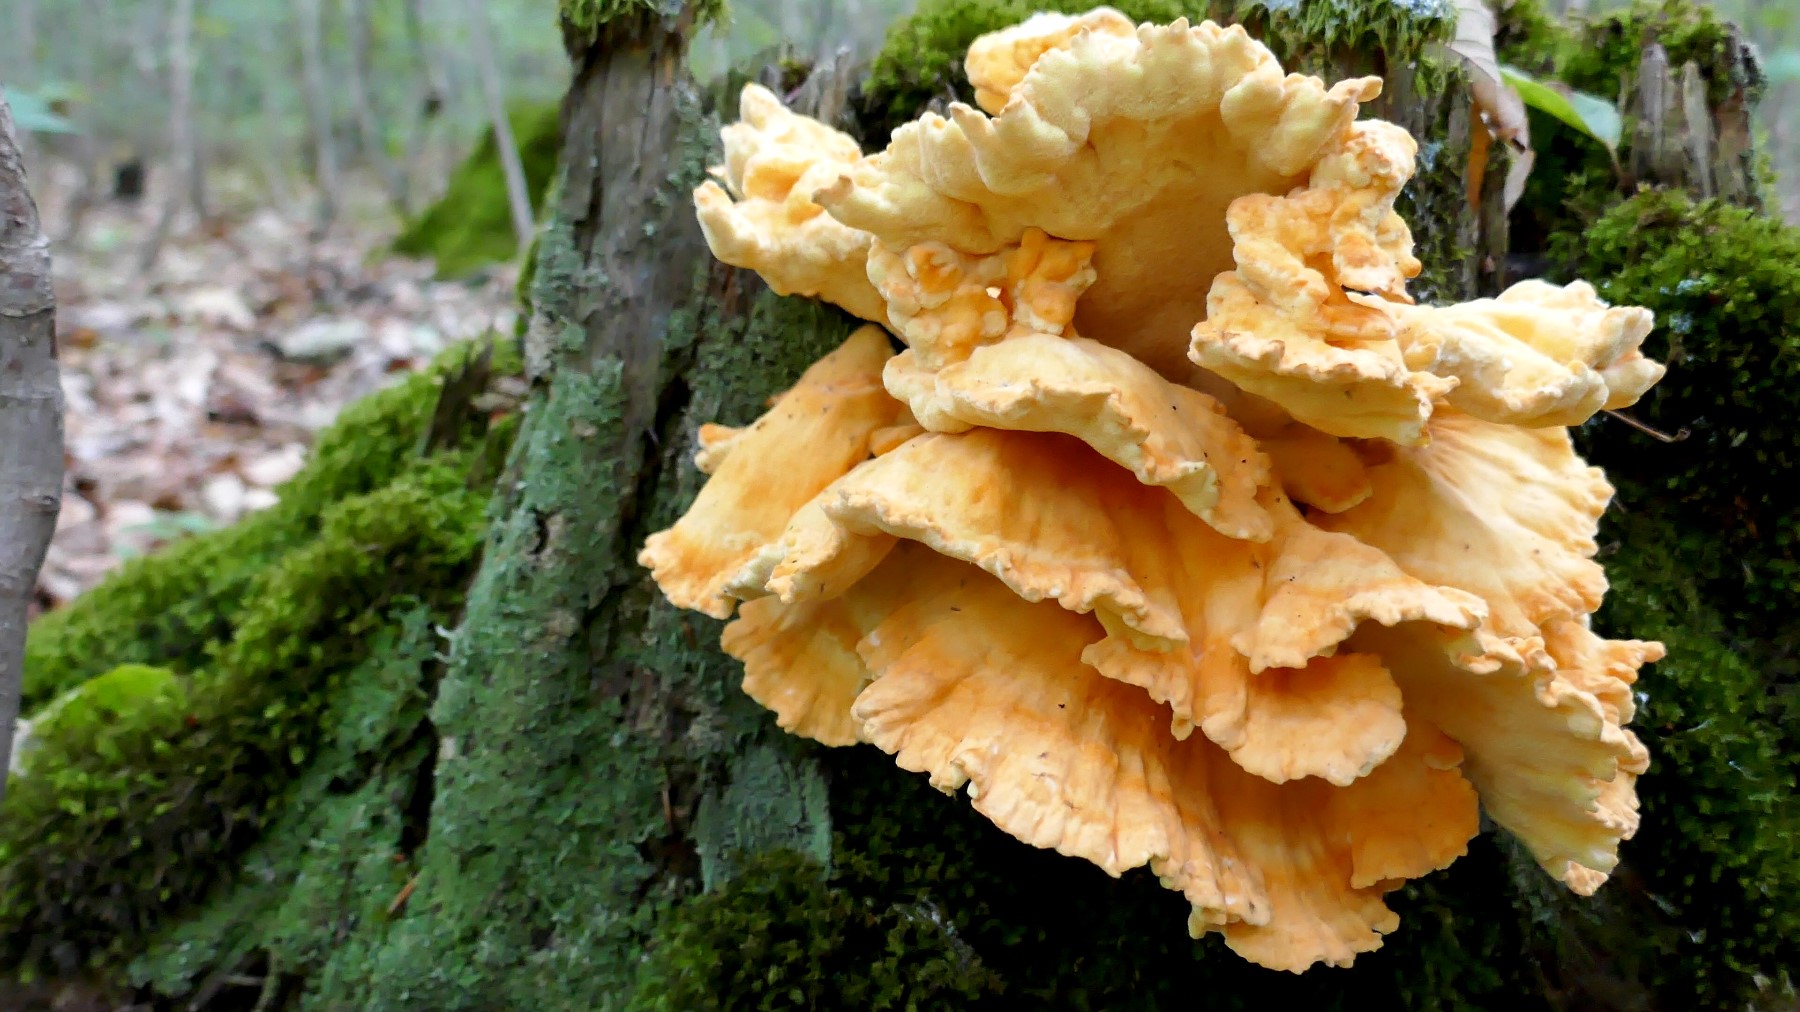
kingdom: Fungi
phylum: Basidiomycota
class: Agaricomycetes
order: Polyporales
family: Laetiporaceae
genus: Laetiporus
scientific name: Laetiporus sulphureus
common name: svovlporesvamp
